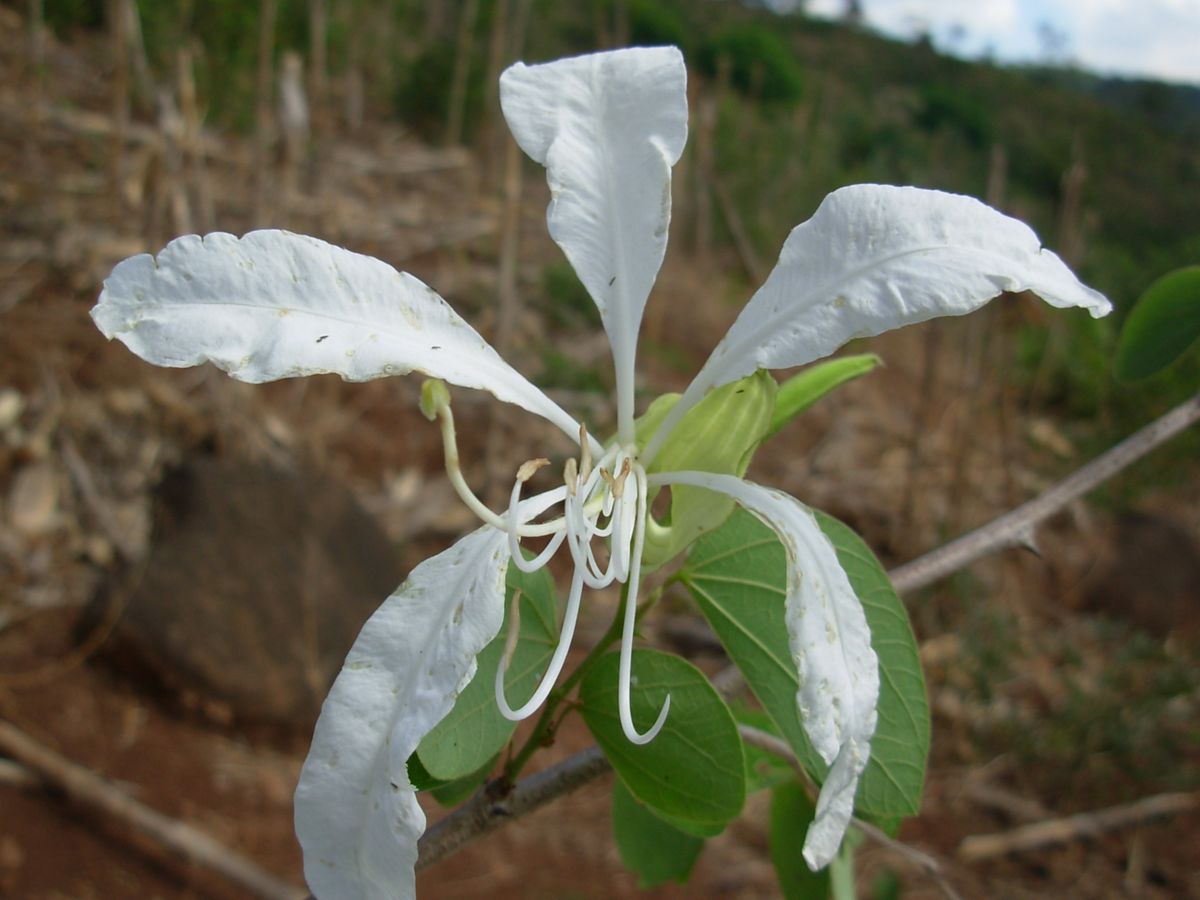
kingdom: Plantae
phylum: Tracheophyta
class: Magnoliopsida
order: Fabales
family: Fabaceae
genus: Bauhinia
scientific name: Bauhinia aculeata
